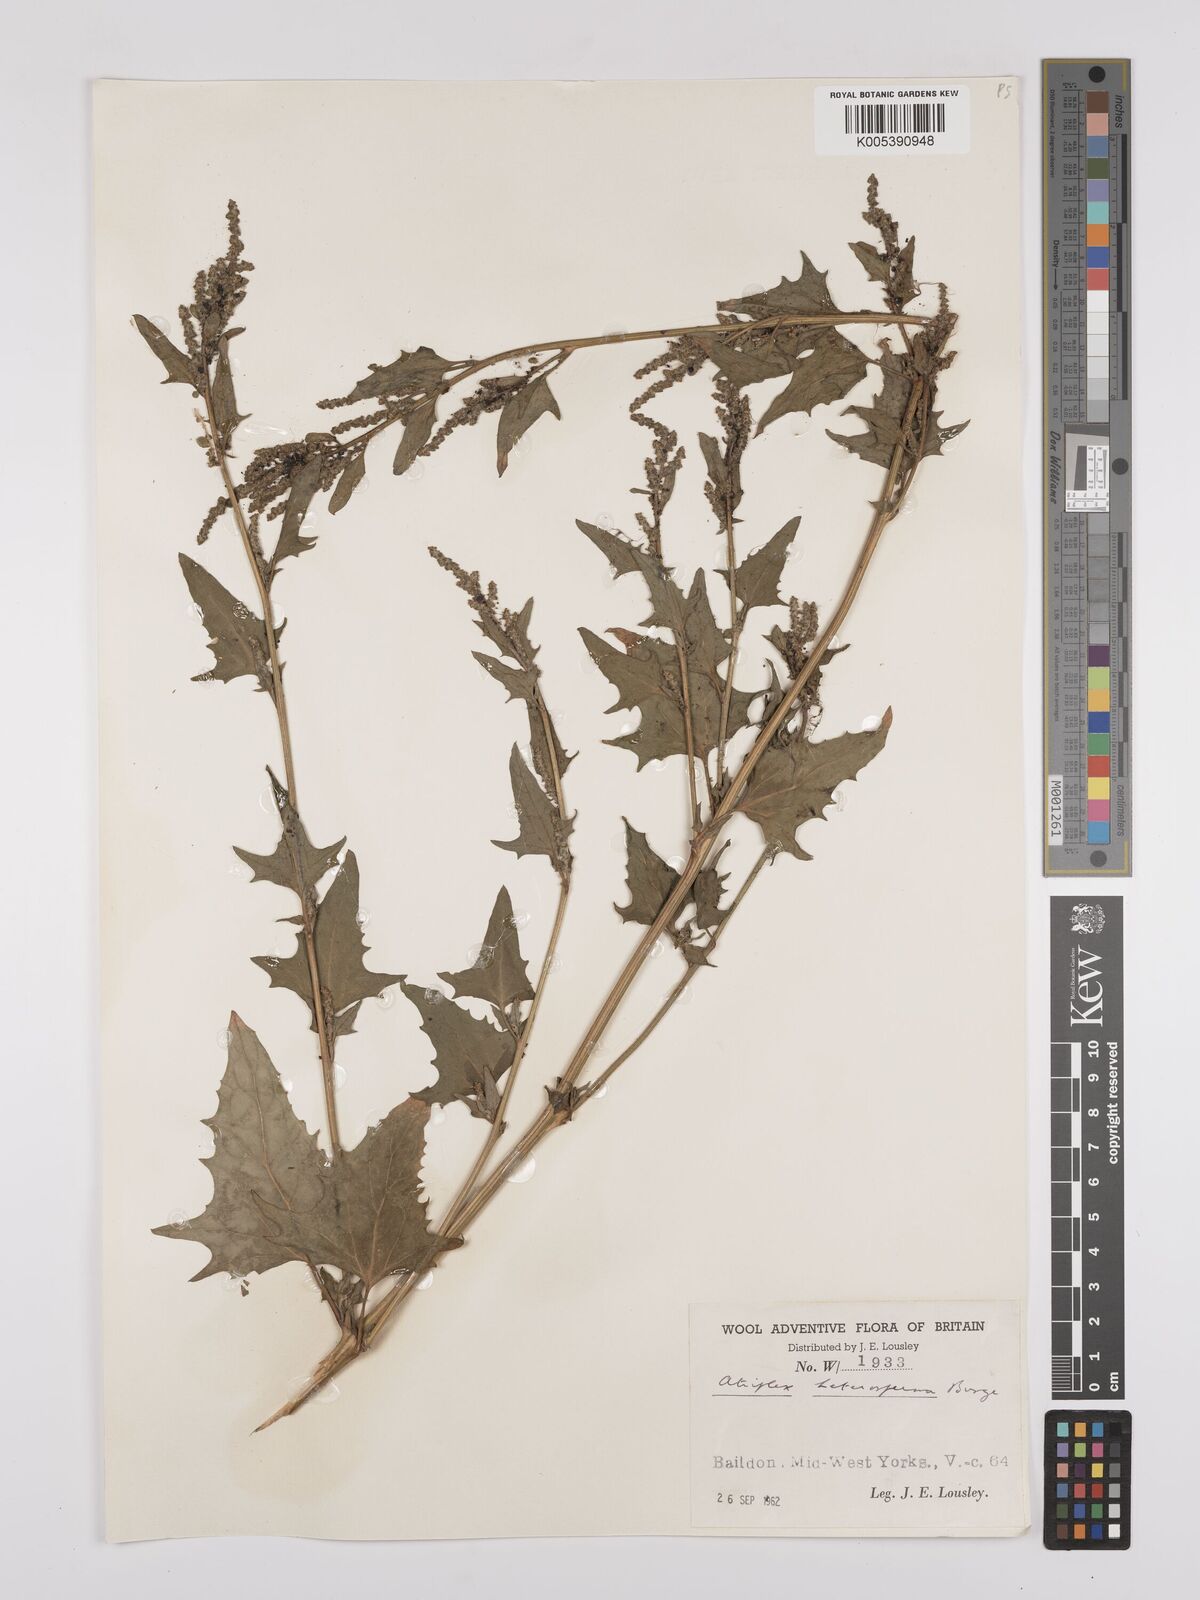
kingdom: Plantae
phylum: Tracheophyta
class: Magnoliopsida
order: Caryophyllales
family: Amaranthaceae
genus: Atriplex
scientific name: Atriplex micrantha
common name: Twoscale saltbush
